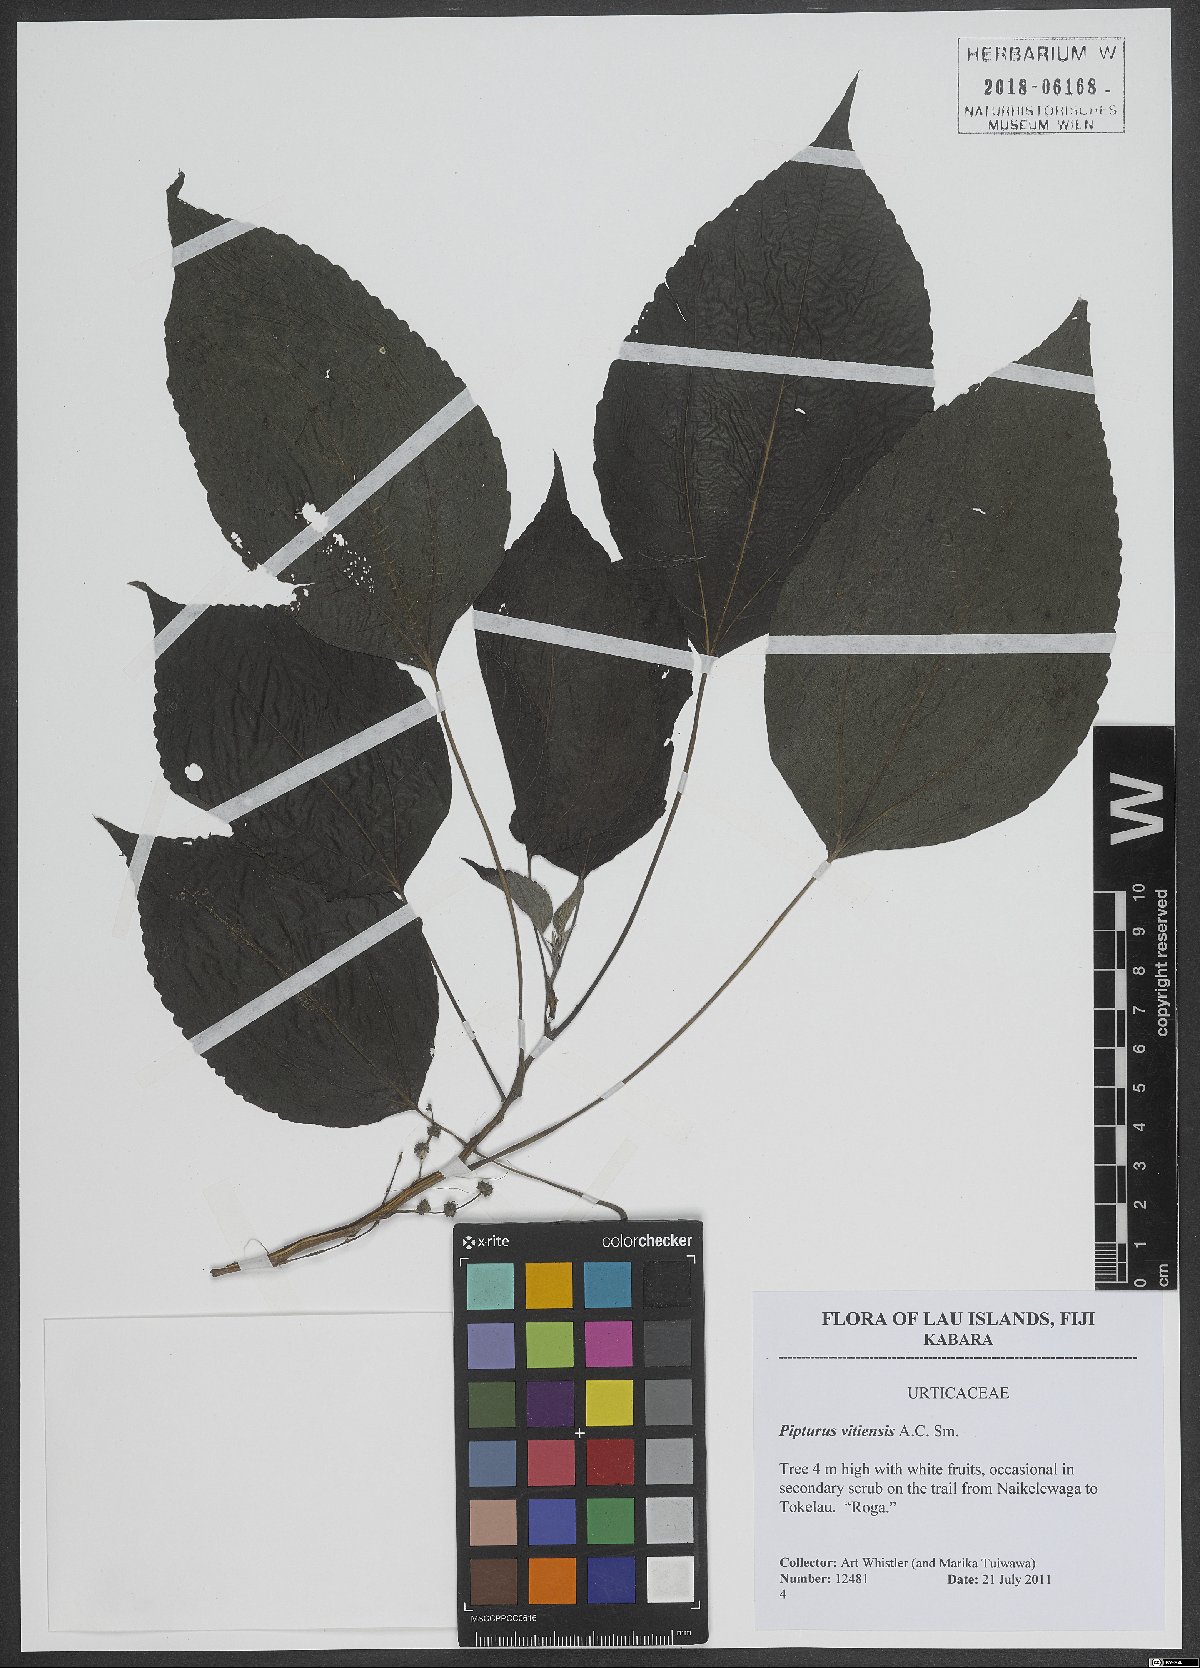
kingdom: Plantae
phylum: Tracheophyta
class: Magnoliopsida
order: Rosales
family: Urticaceae
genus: Pipturus
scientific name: Pipturus vitiensis
